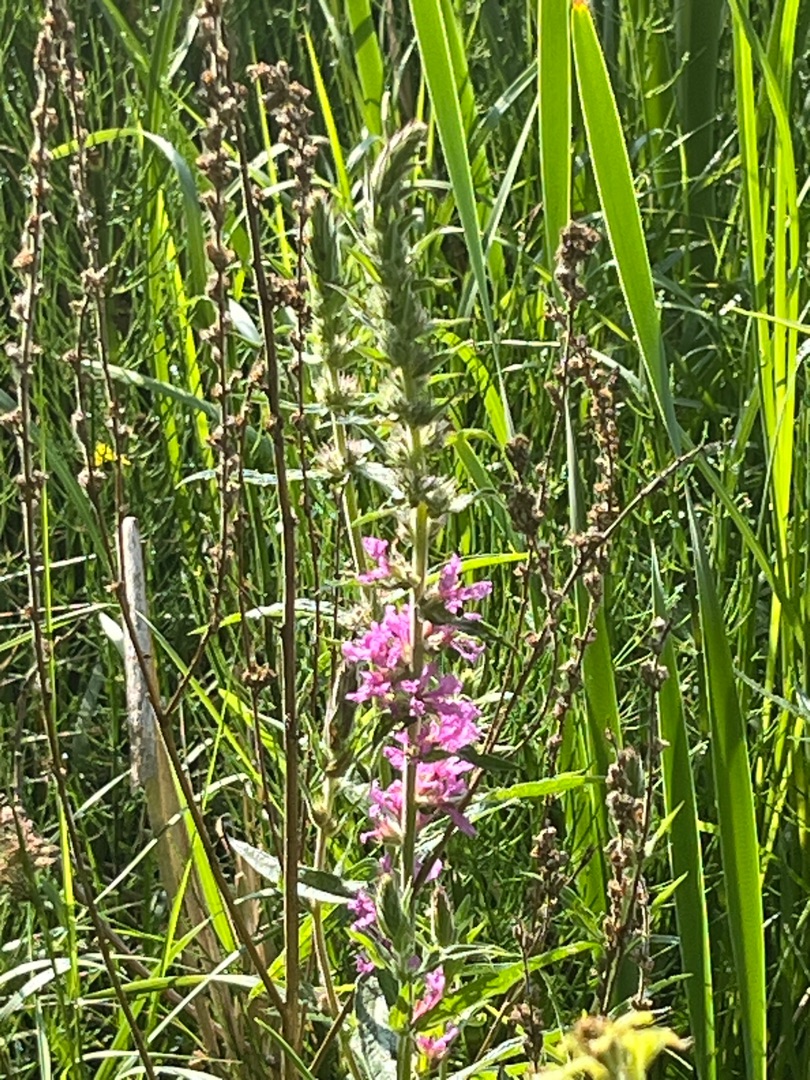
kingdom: Plantae
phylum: Tracheophyta
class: Magnoliopsida
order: Myrtales
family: Lythraceae
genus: Lythrum
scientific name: Lythrum salicaria
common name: Kattehale
